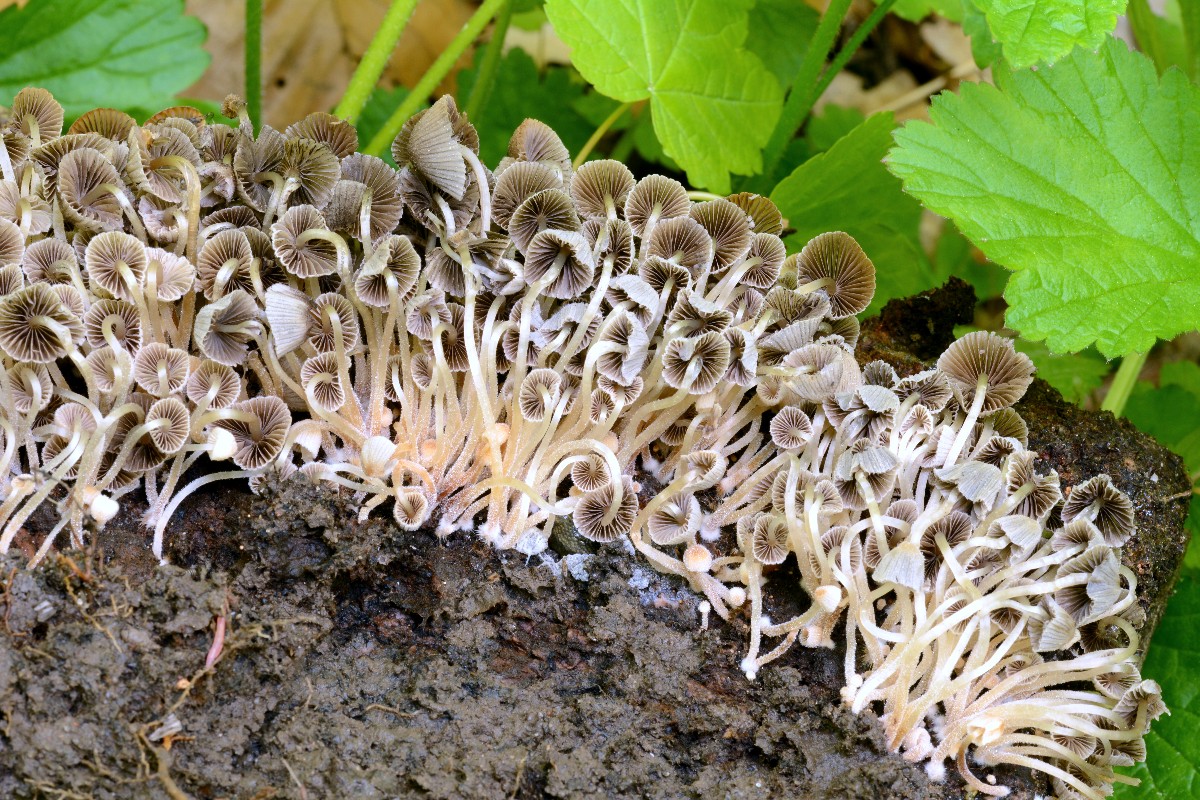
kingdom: Fungi
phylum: Basidiomycota
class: Agaricomycetes
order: Agaricales
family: Psathyrellaceae
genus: Coprinellus
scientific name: Coprinellus disseminatus
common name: bredsået blækhat
